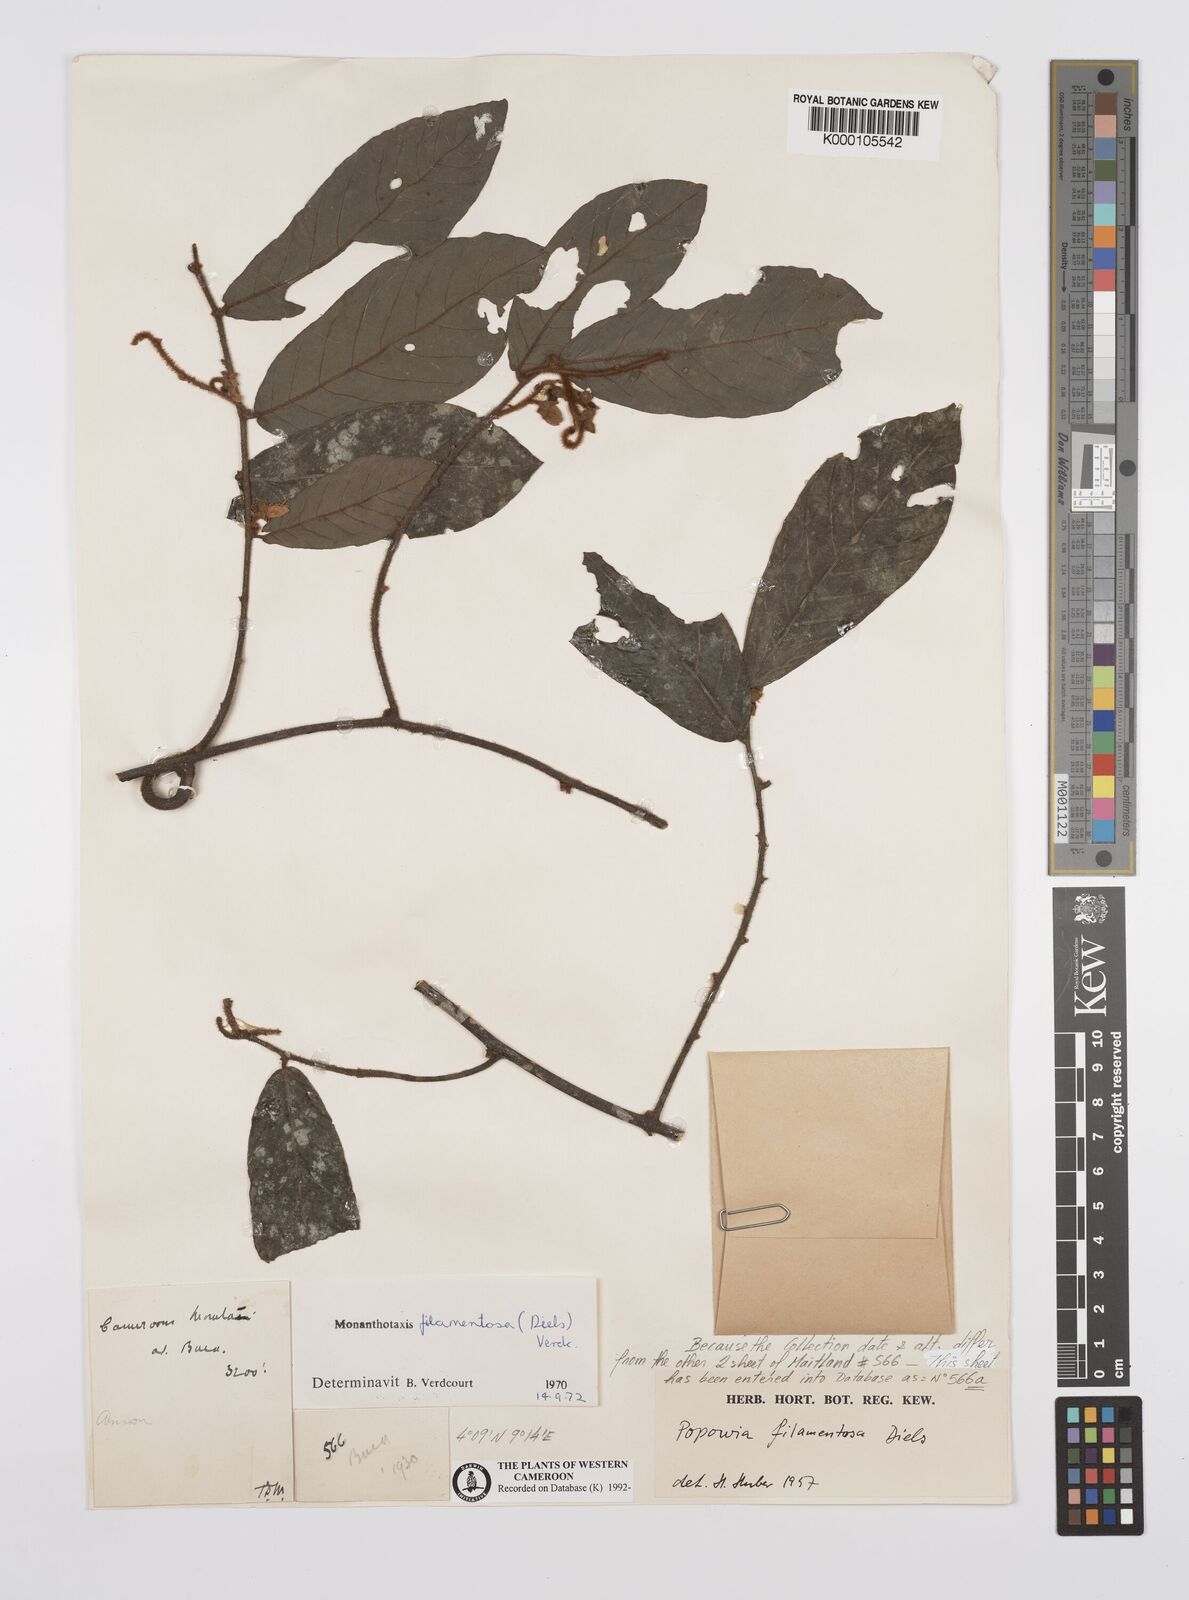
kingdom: Plantae
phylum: Tracheophyta
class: Magnoliopsida
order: Magnoliales
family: Annonaceae
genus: Monanthotaxis
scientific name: Monanthotaxis filamentosa
